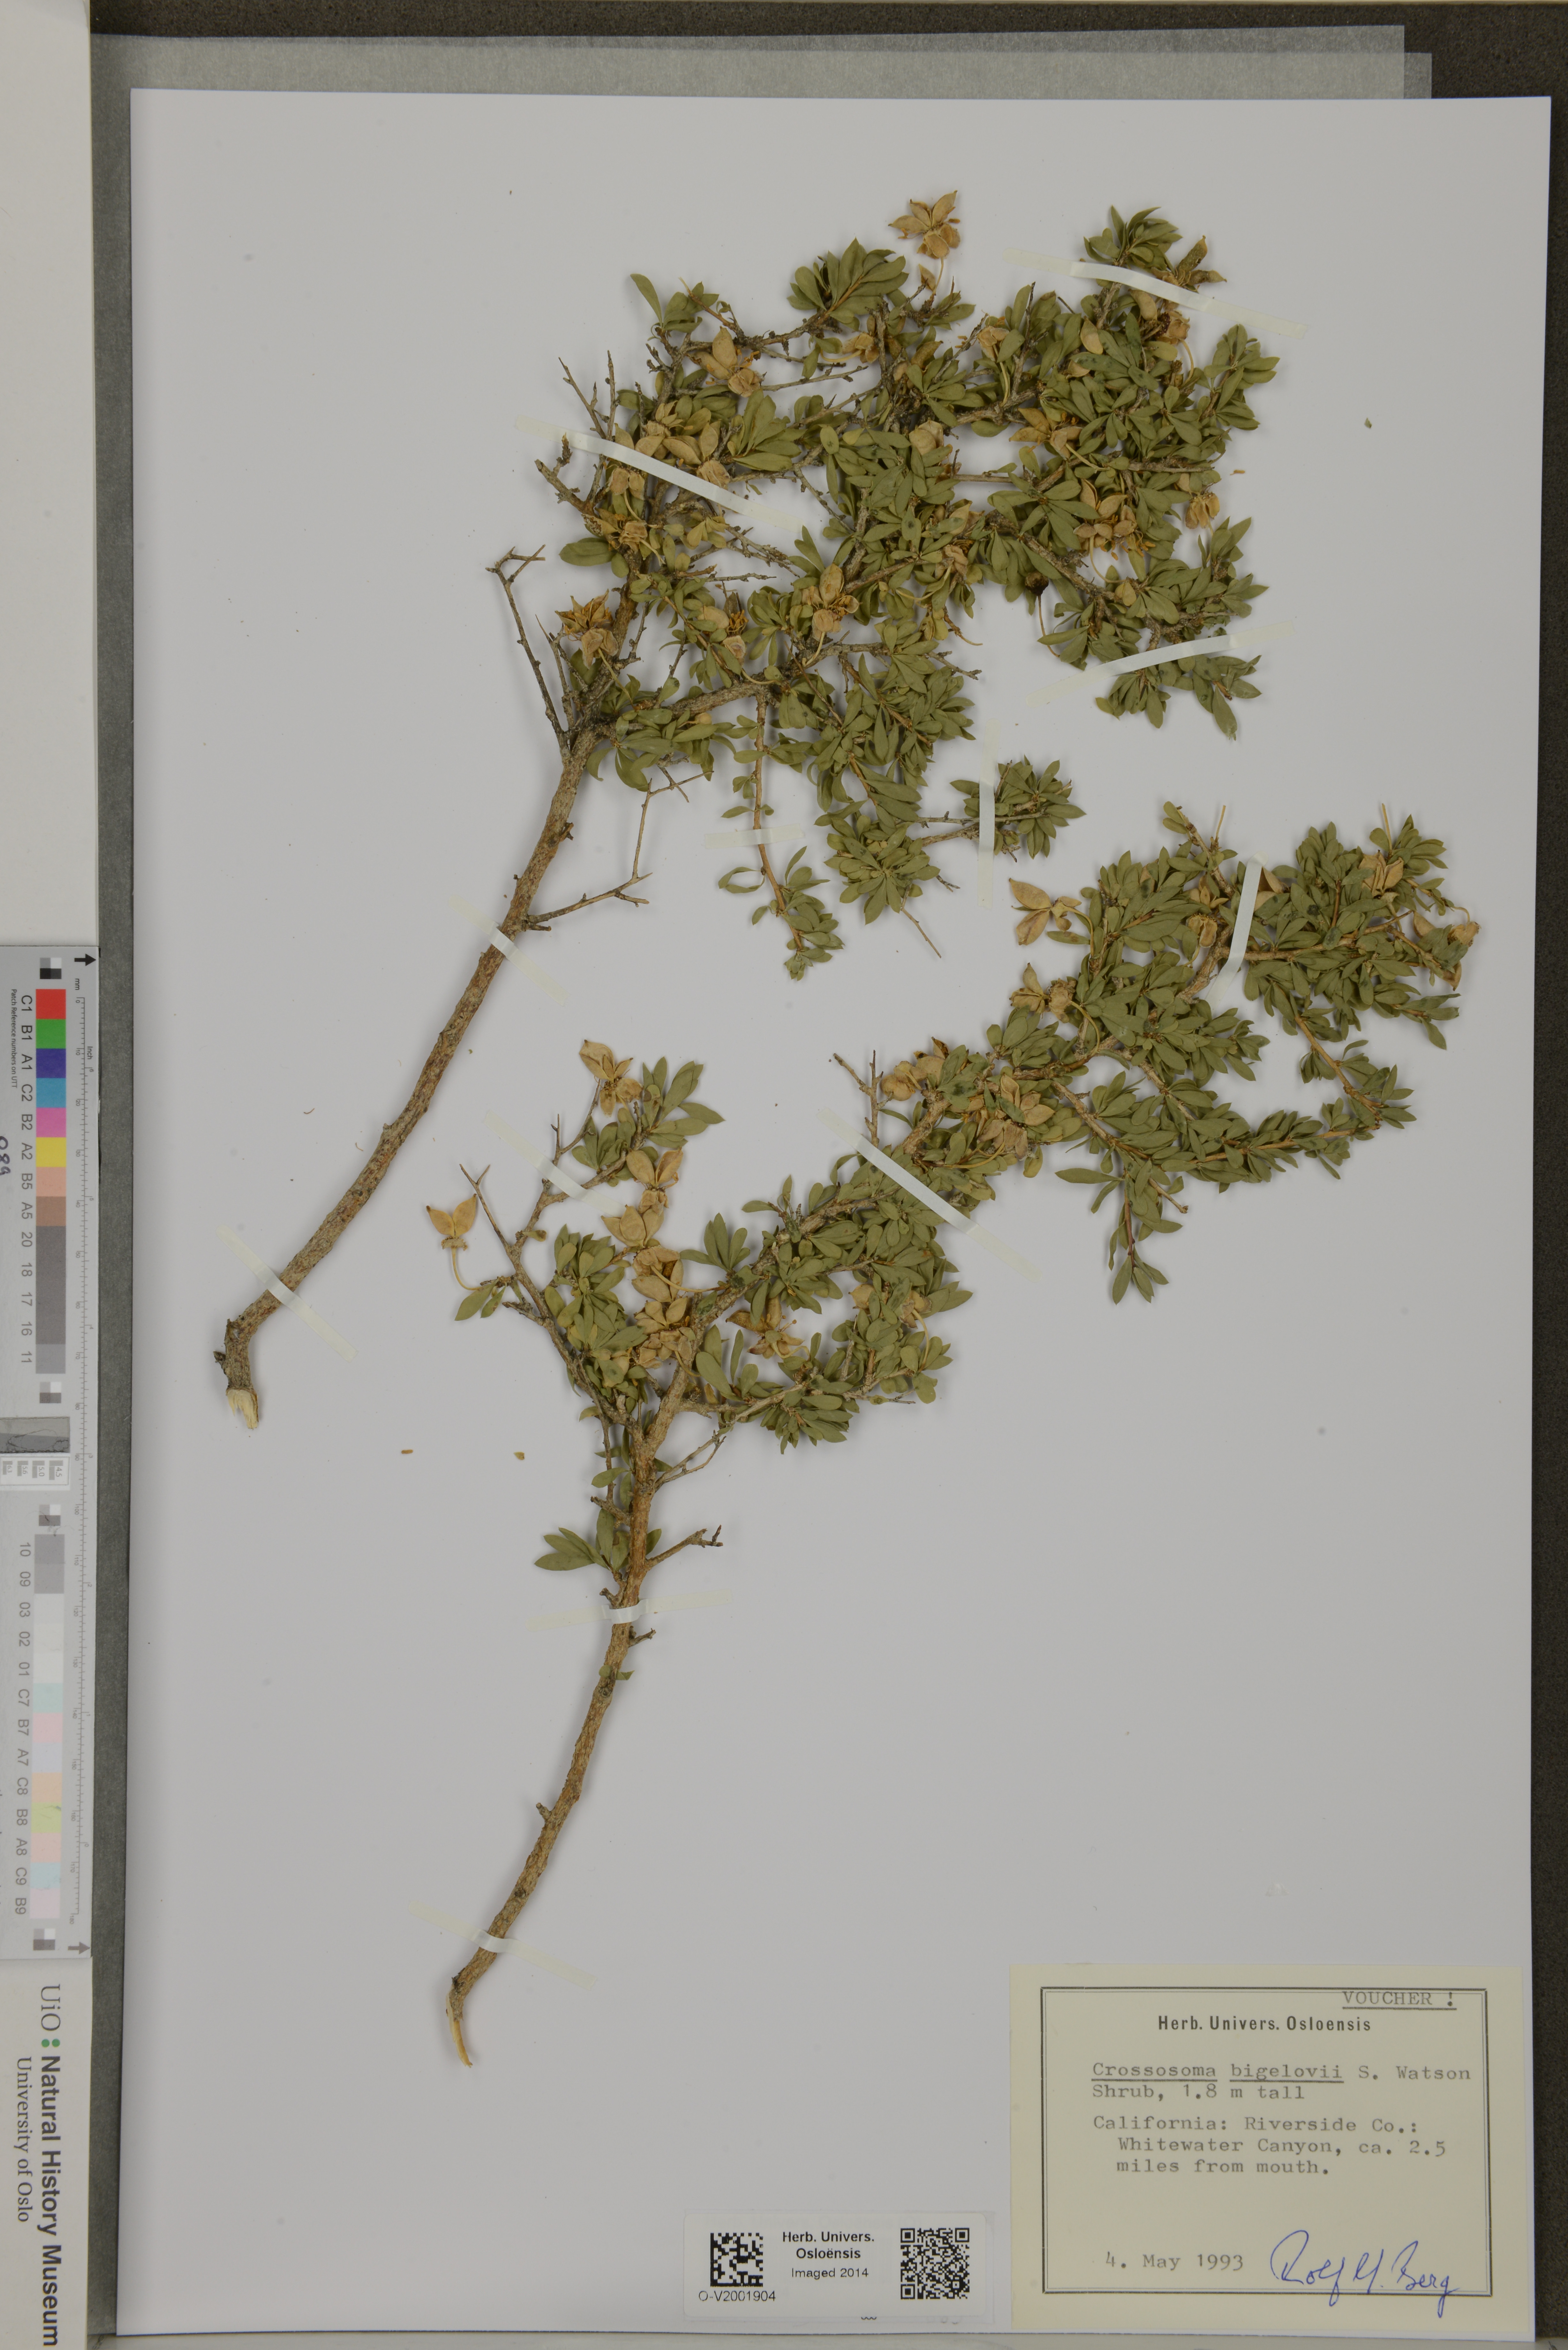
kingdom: Plantae
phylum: Tracheophyta
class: Magnoliopsida
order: Crossosomatales
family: Crossosomataceae
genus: Crossosoma
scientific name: Crossosoma bigelovii
